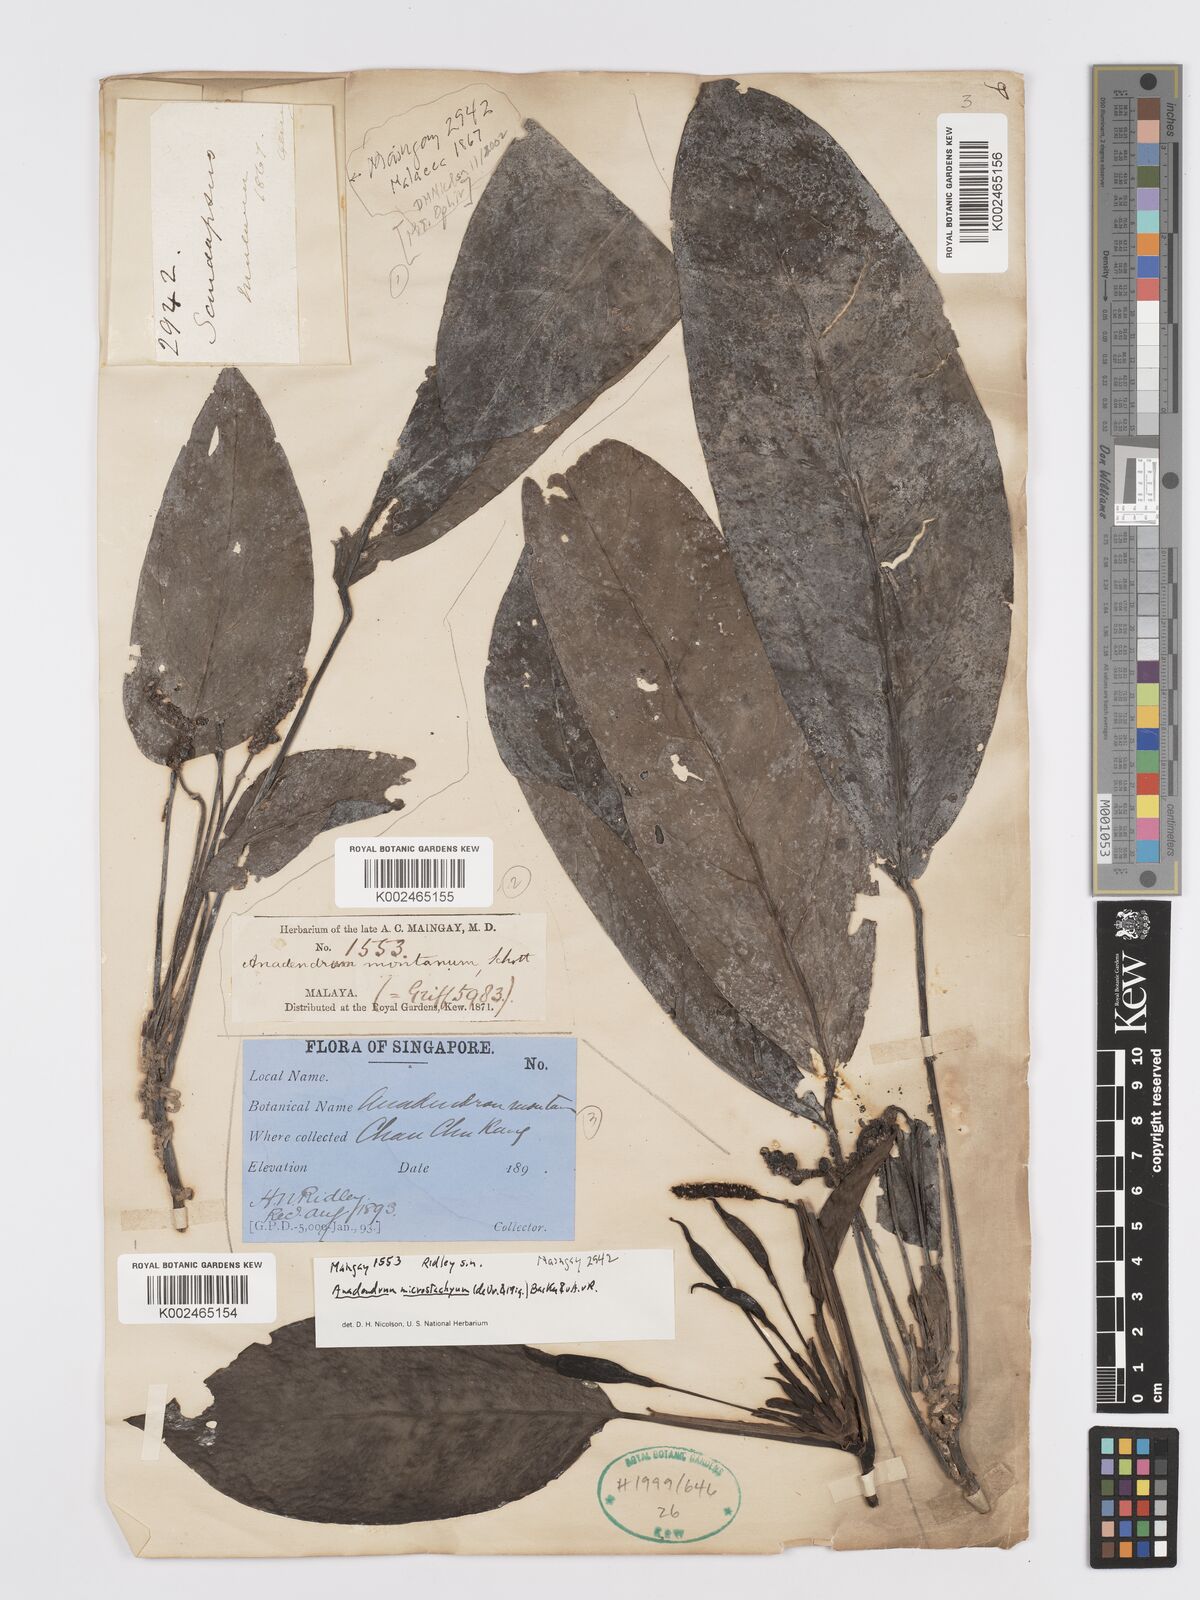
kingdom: Plantae
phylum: Tracheophyta
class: Liliopsida
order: Alismatales
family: Araceae
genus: Anadendrum
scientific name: Anadendrum microstachyum
